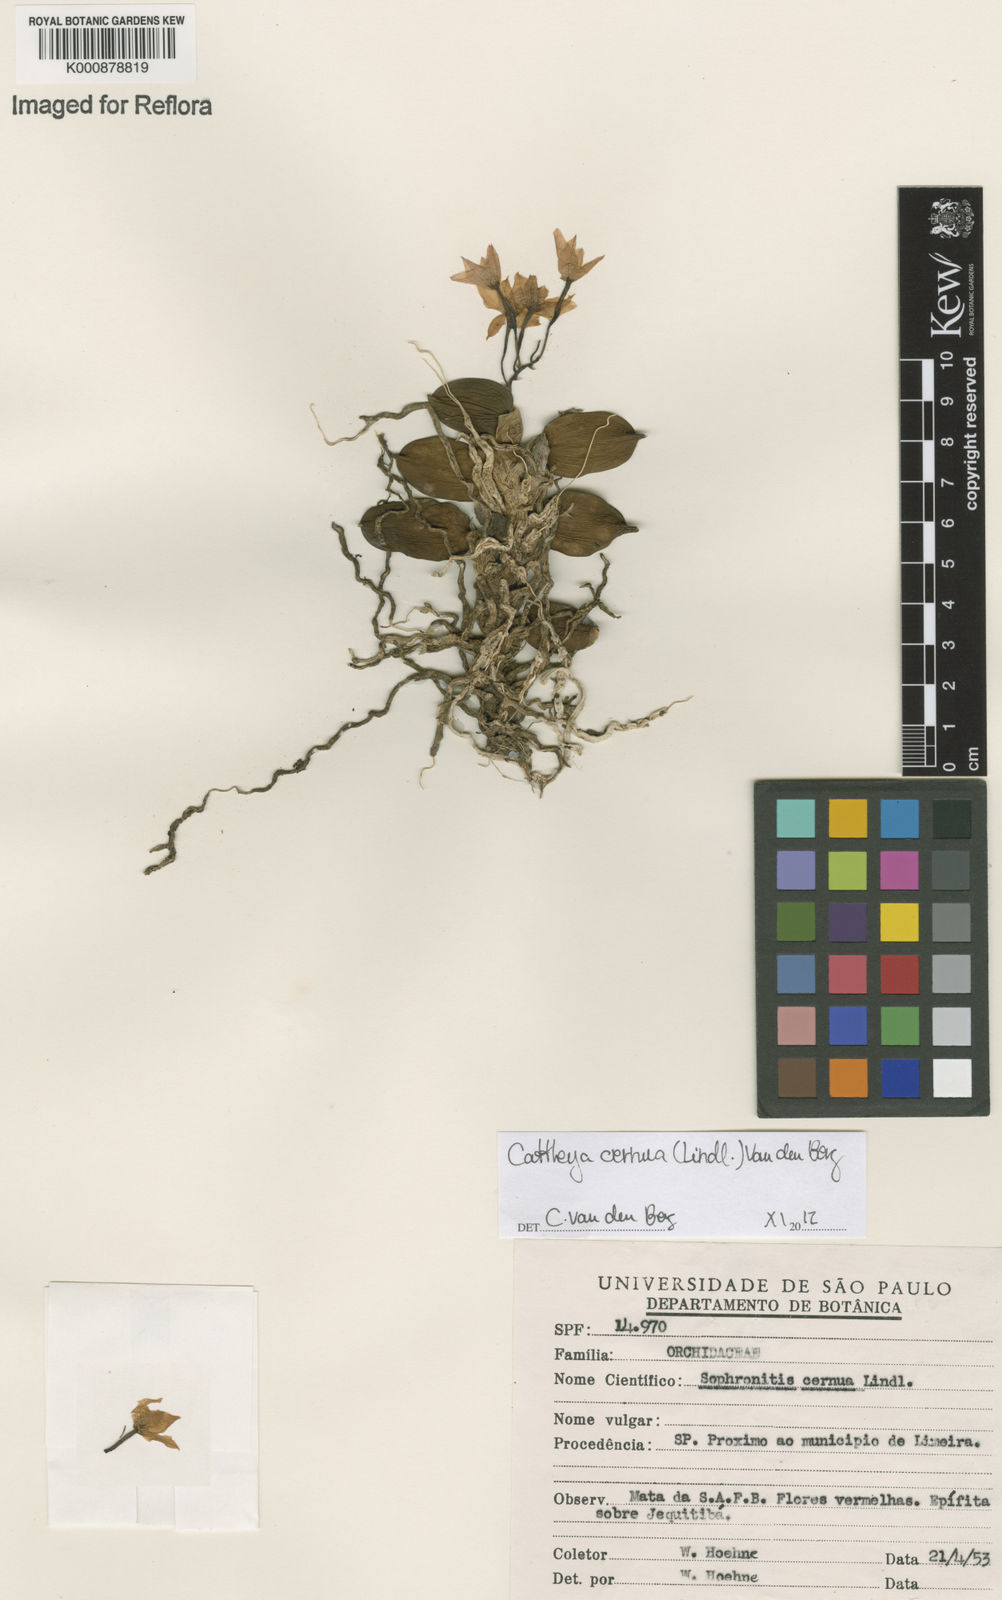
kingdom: Plantae
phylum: Tracheophyta
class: Liliopsida
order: Asparagales
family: Orchidaceae
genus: Cattleya
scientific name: Cattleya
